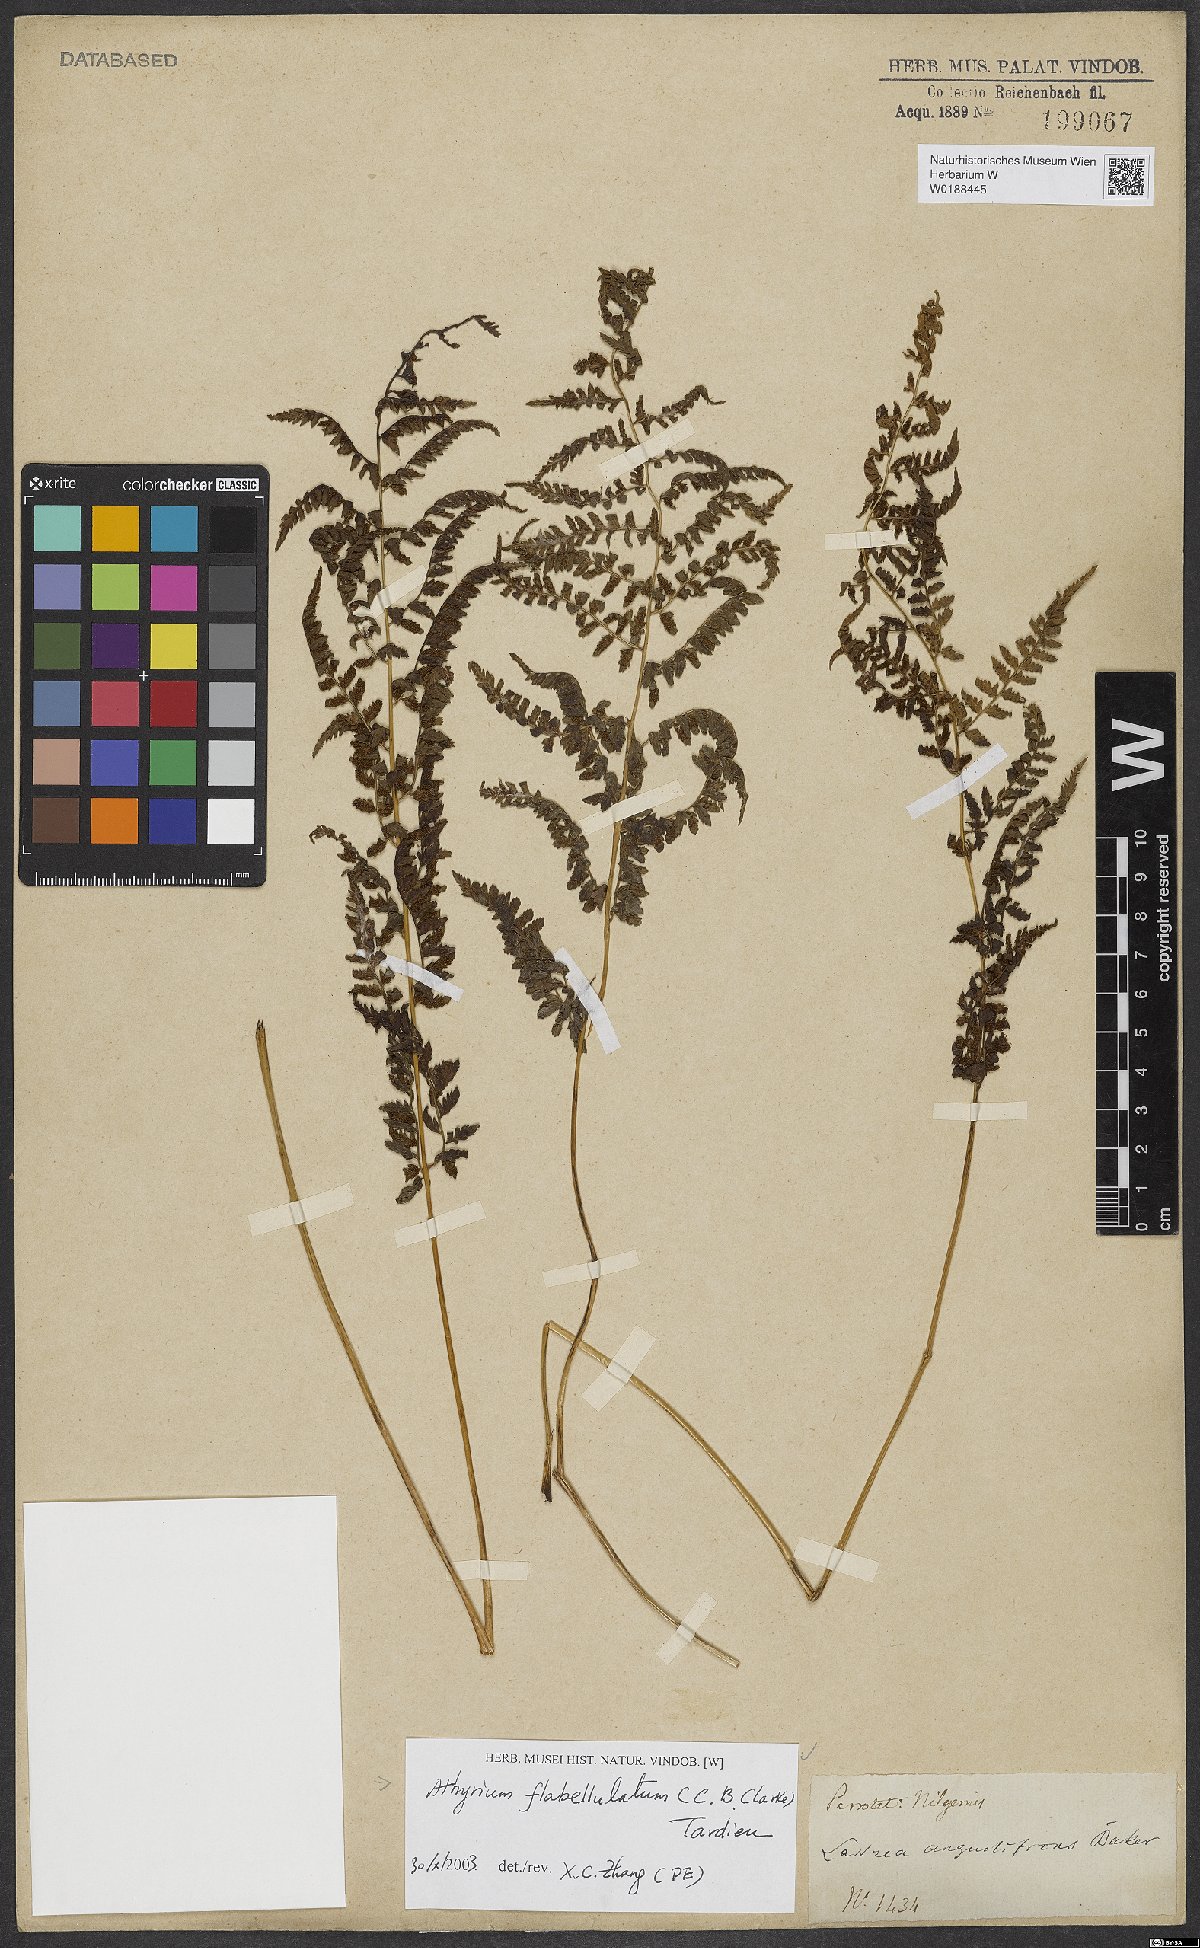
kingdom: Plantae
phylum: Tracheophyta
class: Polypodiopsida
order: Polypodiales
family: Athyriaceae
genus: Athyrium
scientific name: Athyrium flabellulatum
